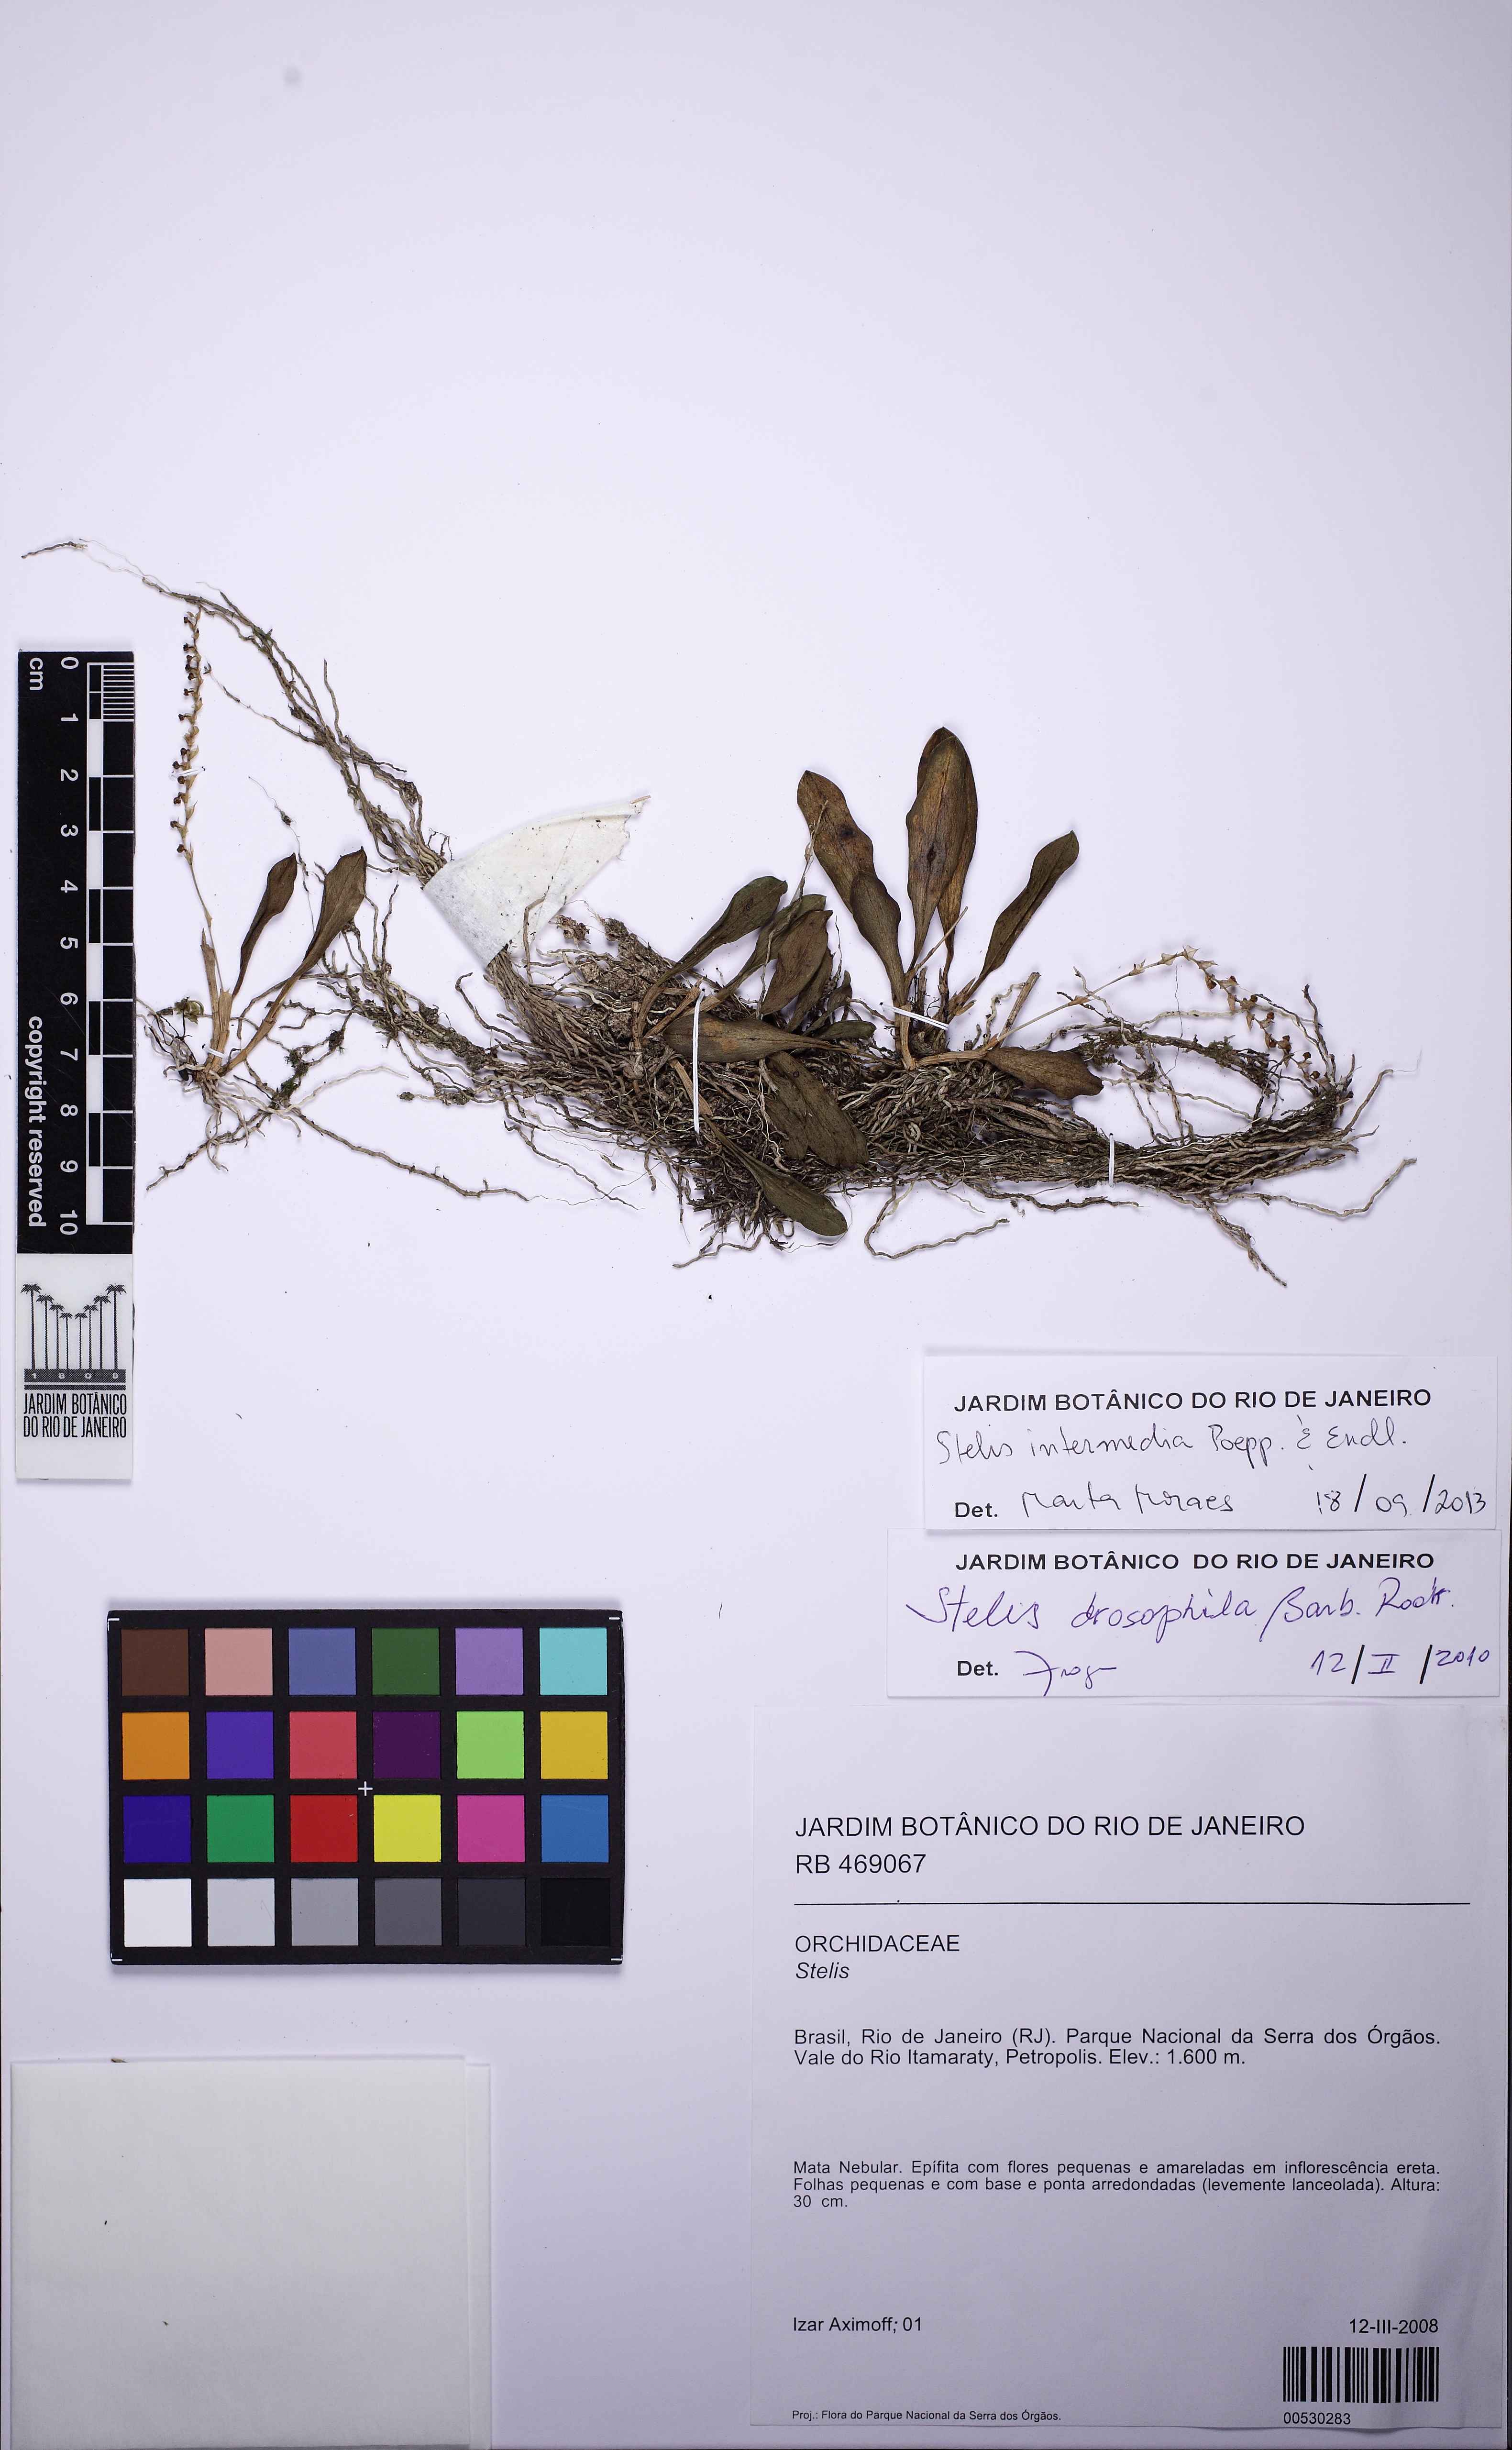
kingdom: Plantae
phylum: Tracheophyta
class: Liliopsida
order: Asparagales
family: Orchidaceae
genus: Stelis
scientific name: Stelis intermedia
